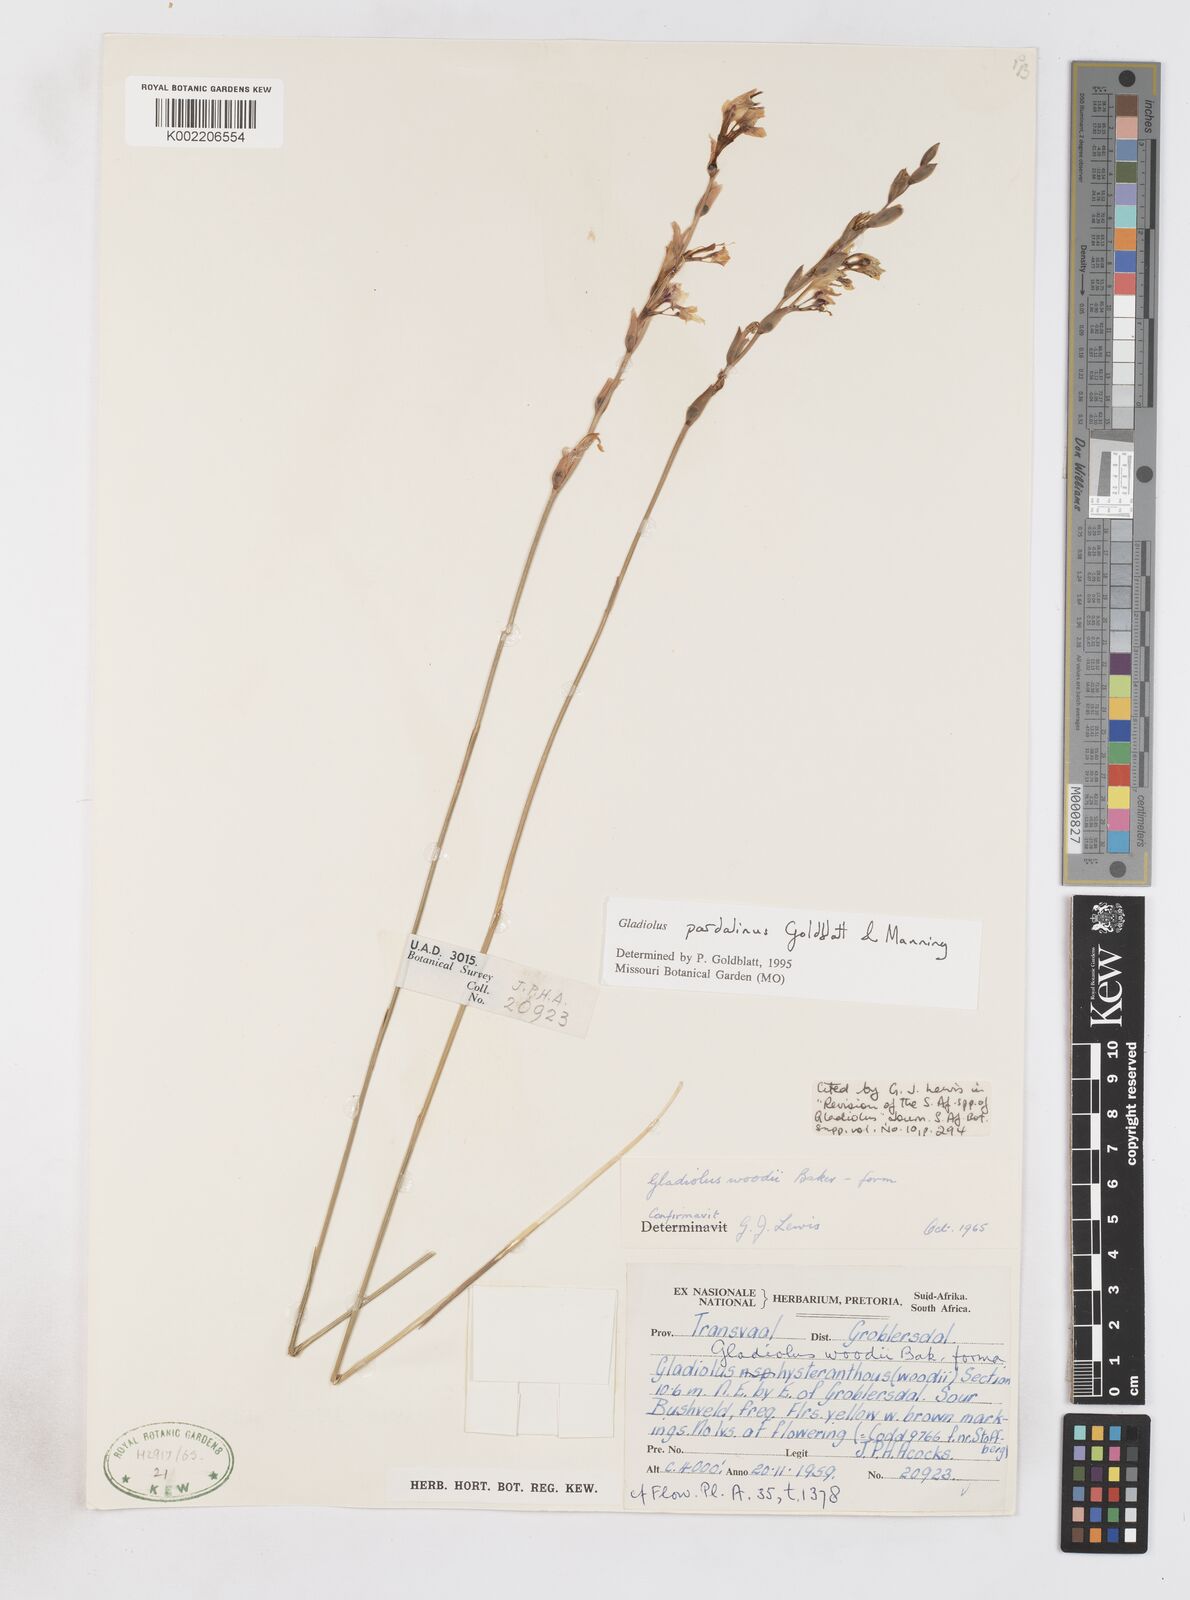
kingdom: Plantae
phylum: Tracheophyta
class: Liliopsida
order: Asparagales
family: Iridaceae
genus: Gladiolus
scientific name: Gladiolus pardalinus
